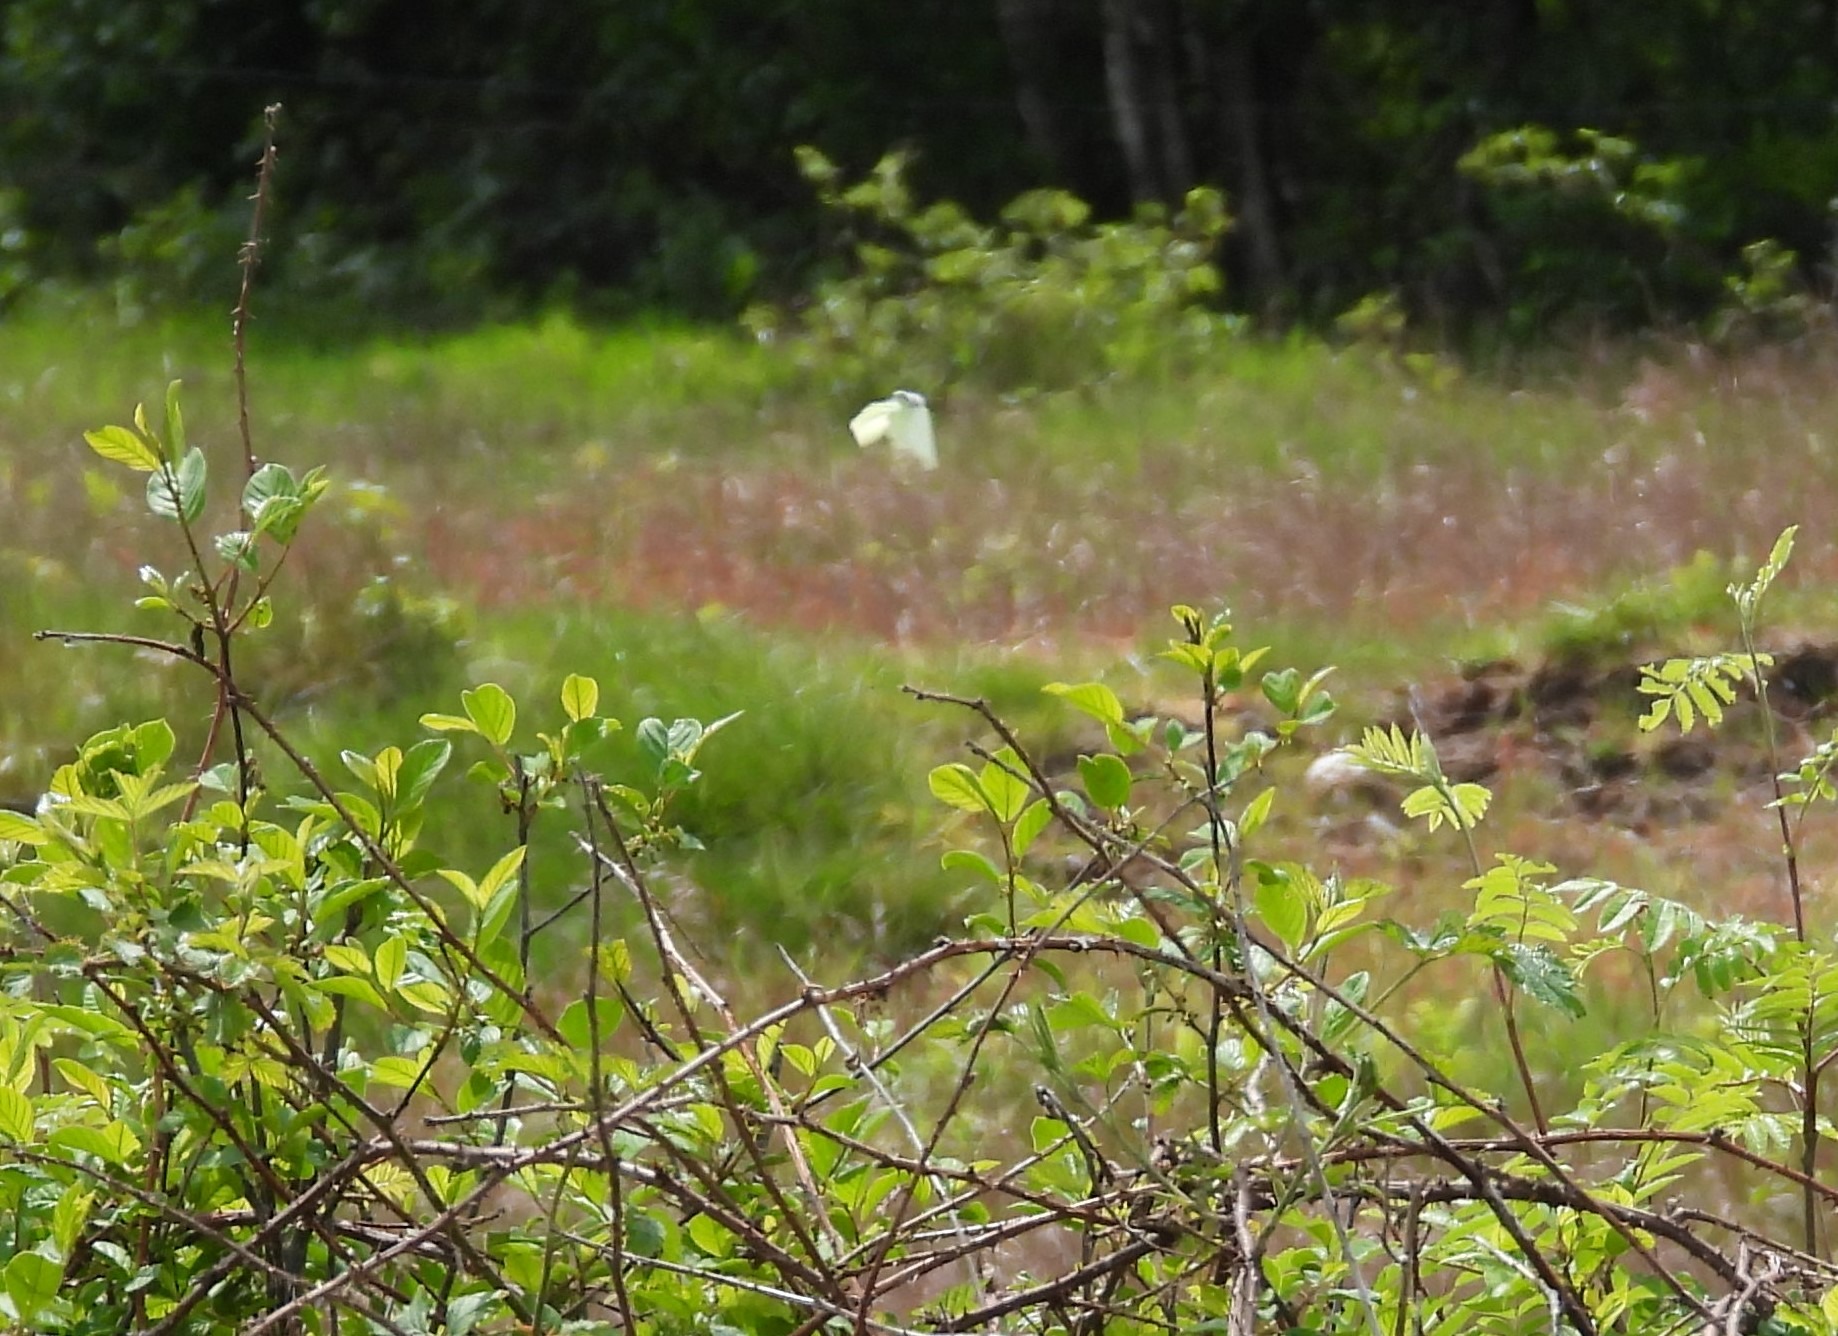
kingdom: Animalia
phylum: Arthropoda
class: Insecta
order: Lepidoptera
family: Pieridae
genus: Gonepteryx
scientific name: Gonepteryx rhamni
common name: Citronsommerfugl
